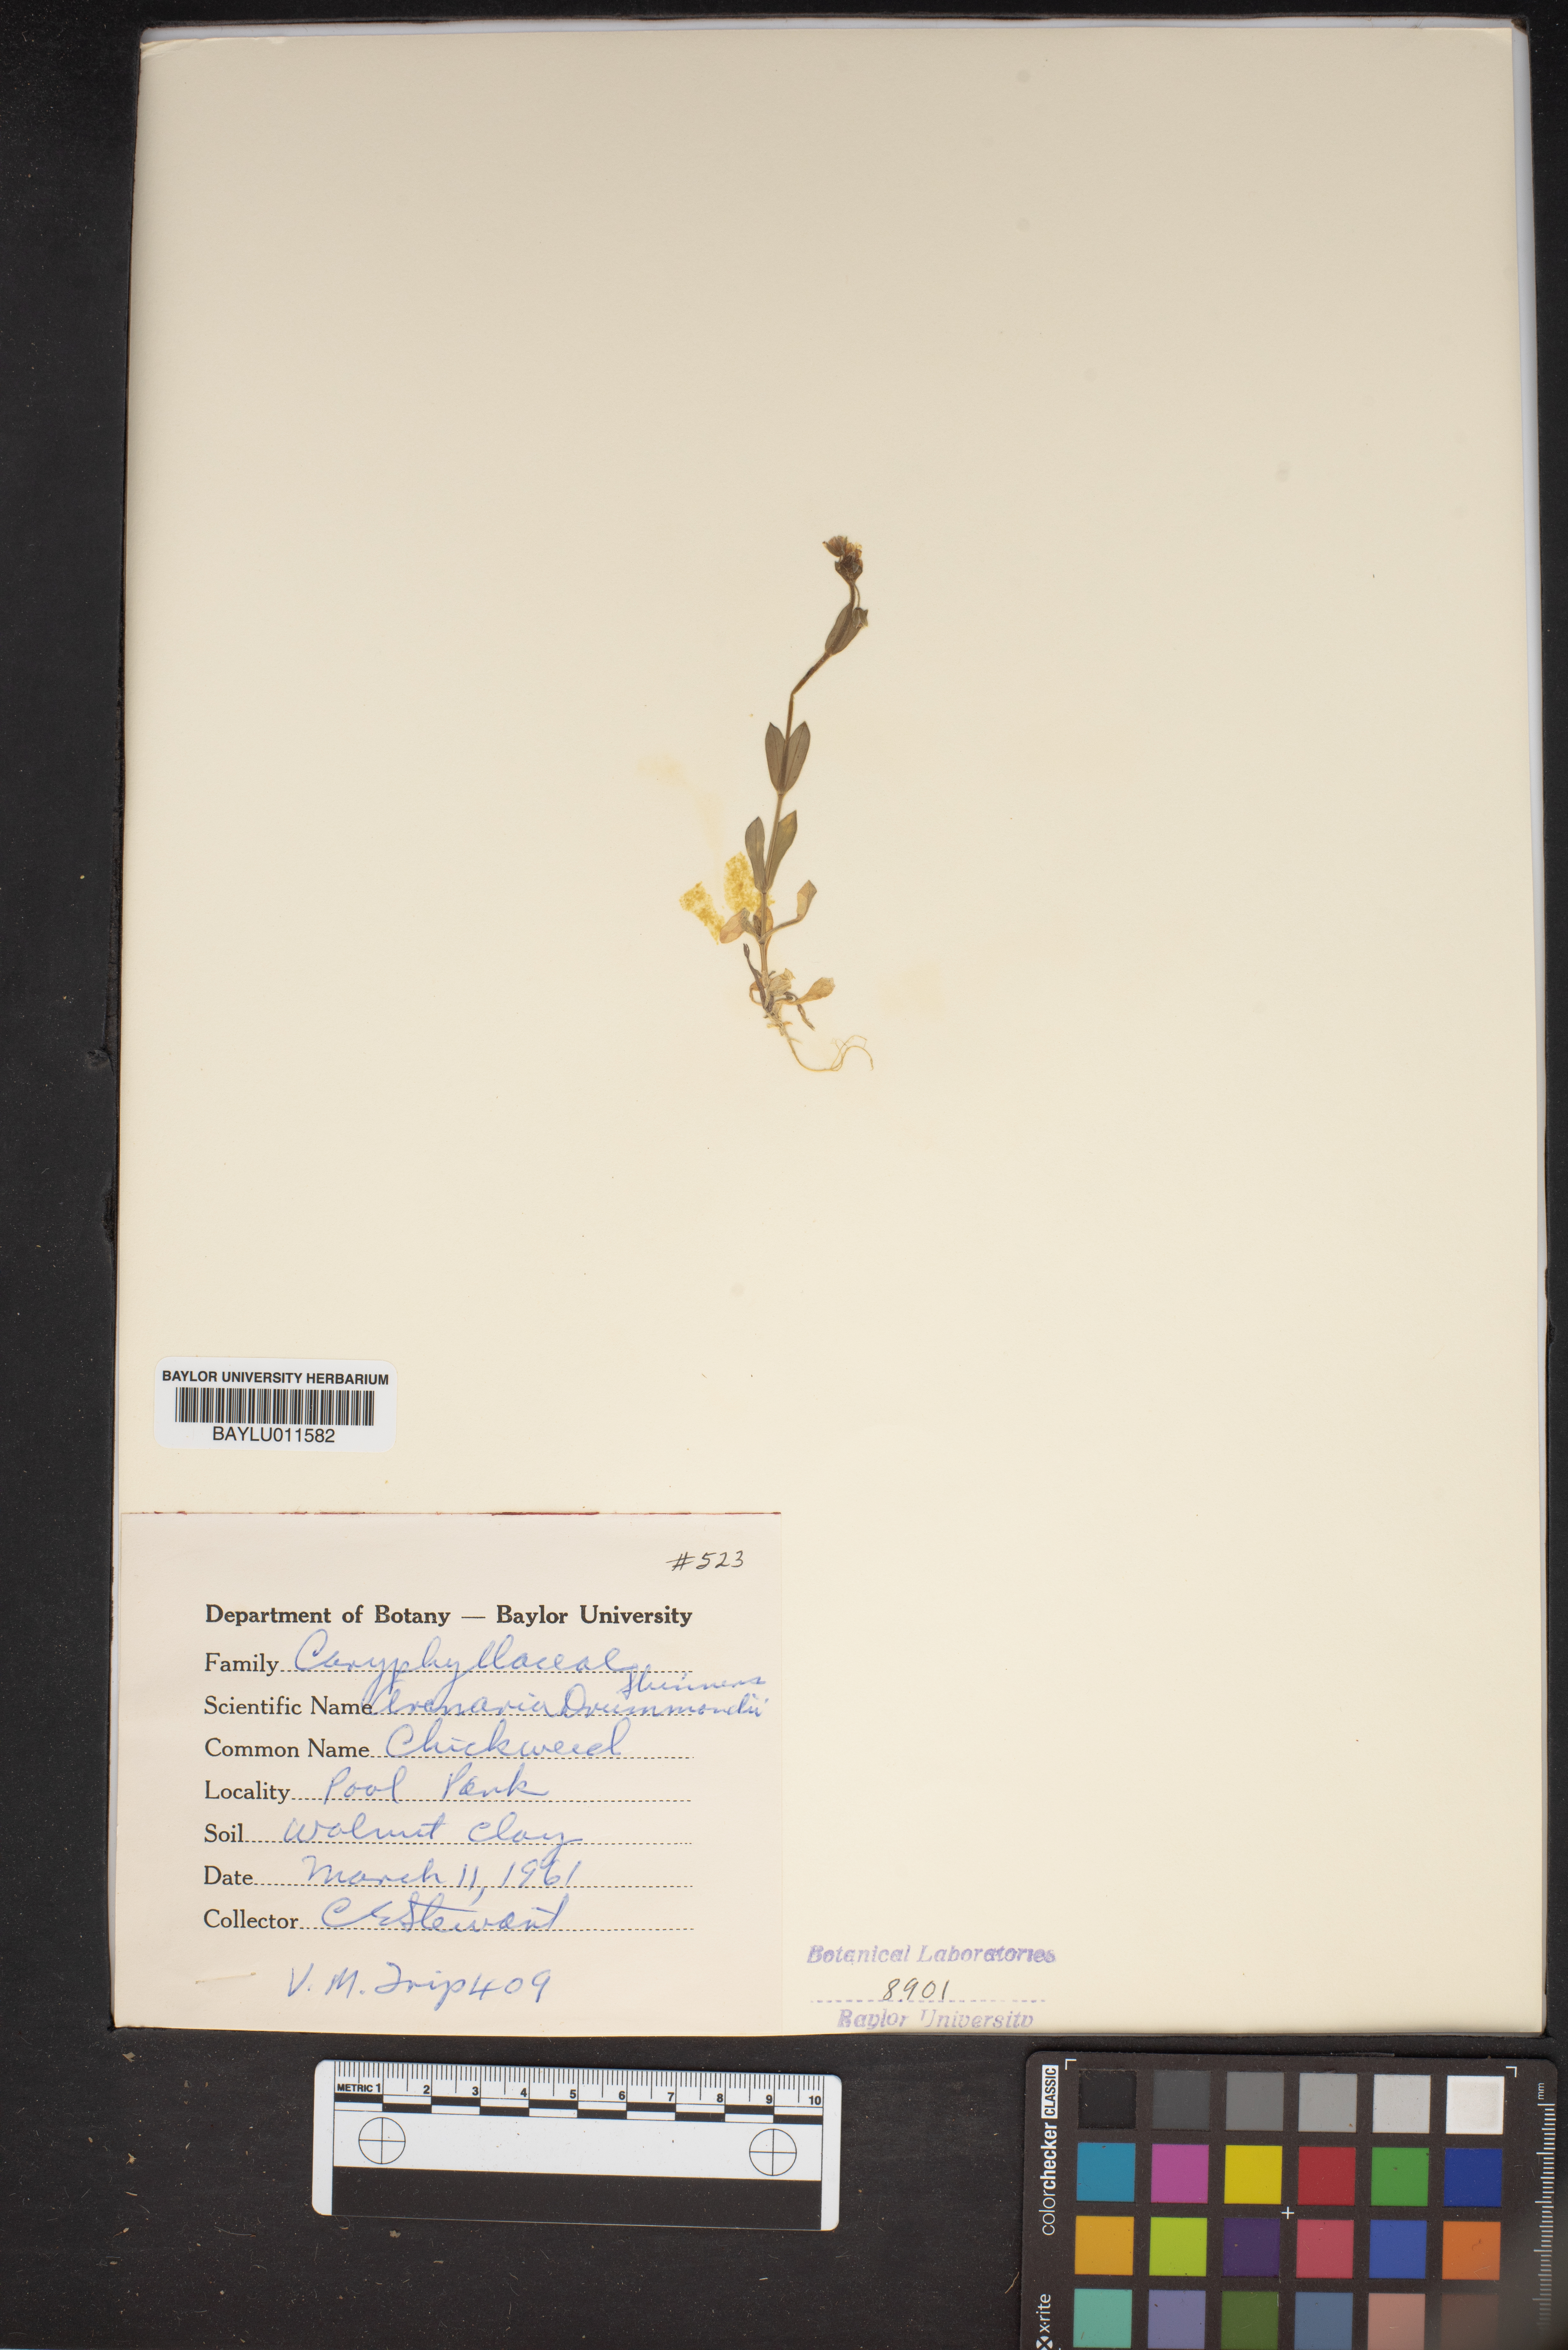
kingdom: Plantae
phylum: Tracheophyta
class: Magnoliopsida
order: Caryophyllales
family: Caryophyllaceae
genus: Geocarpon
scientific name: Geocarpon nuttallii
